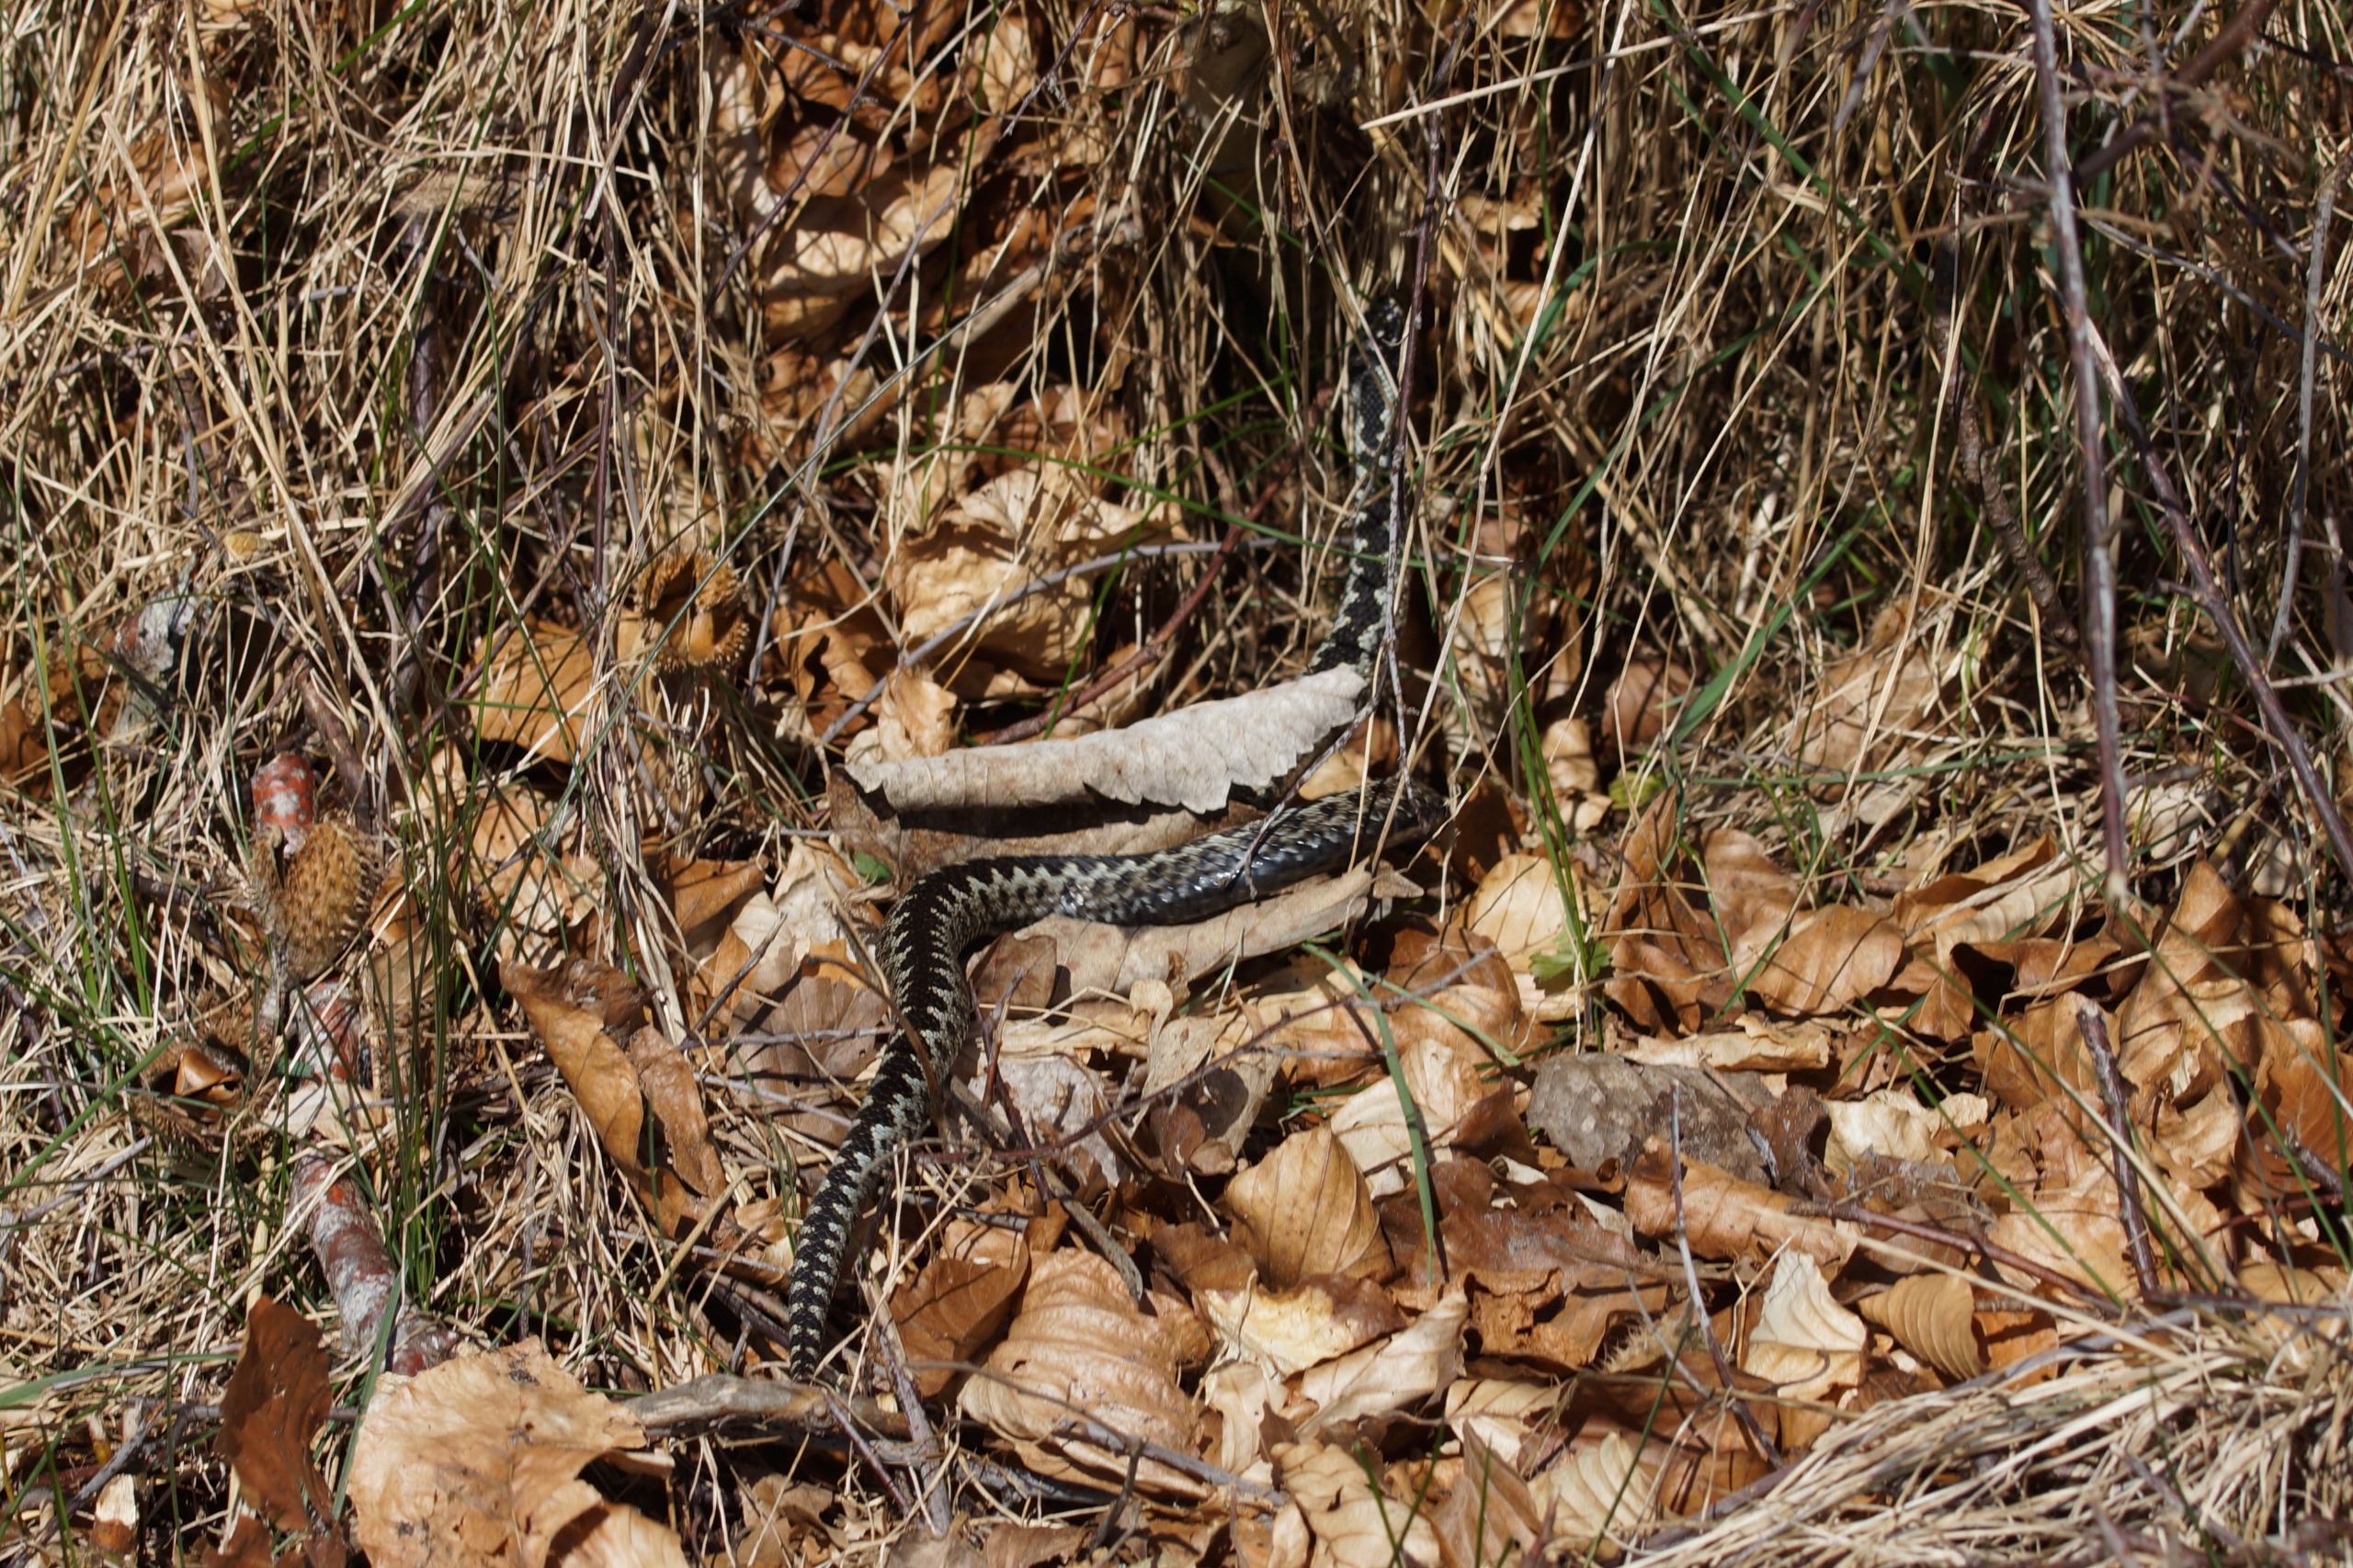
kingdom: Animalia
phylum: Chordata
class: Squamata
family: Viperidae
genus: Vipera
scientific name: Vipera berus
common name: Hugorm
